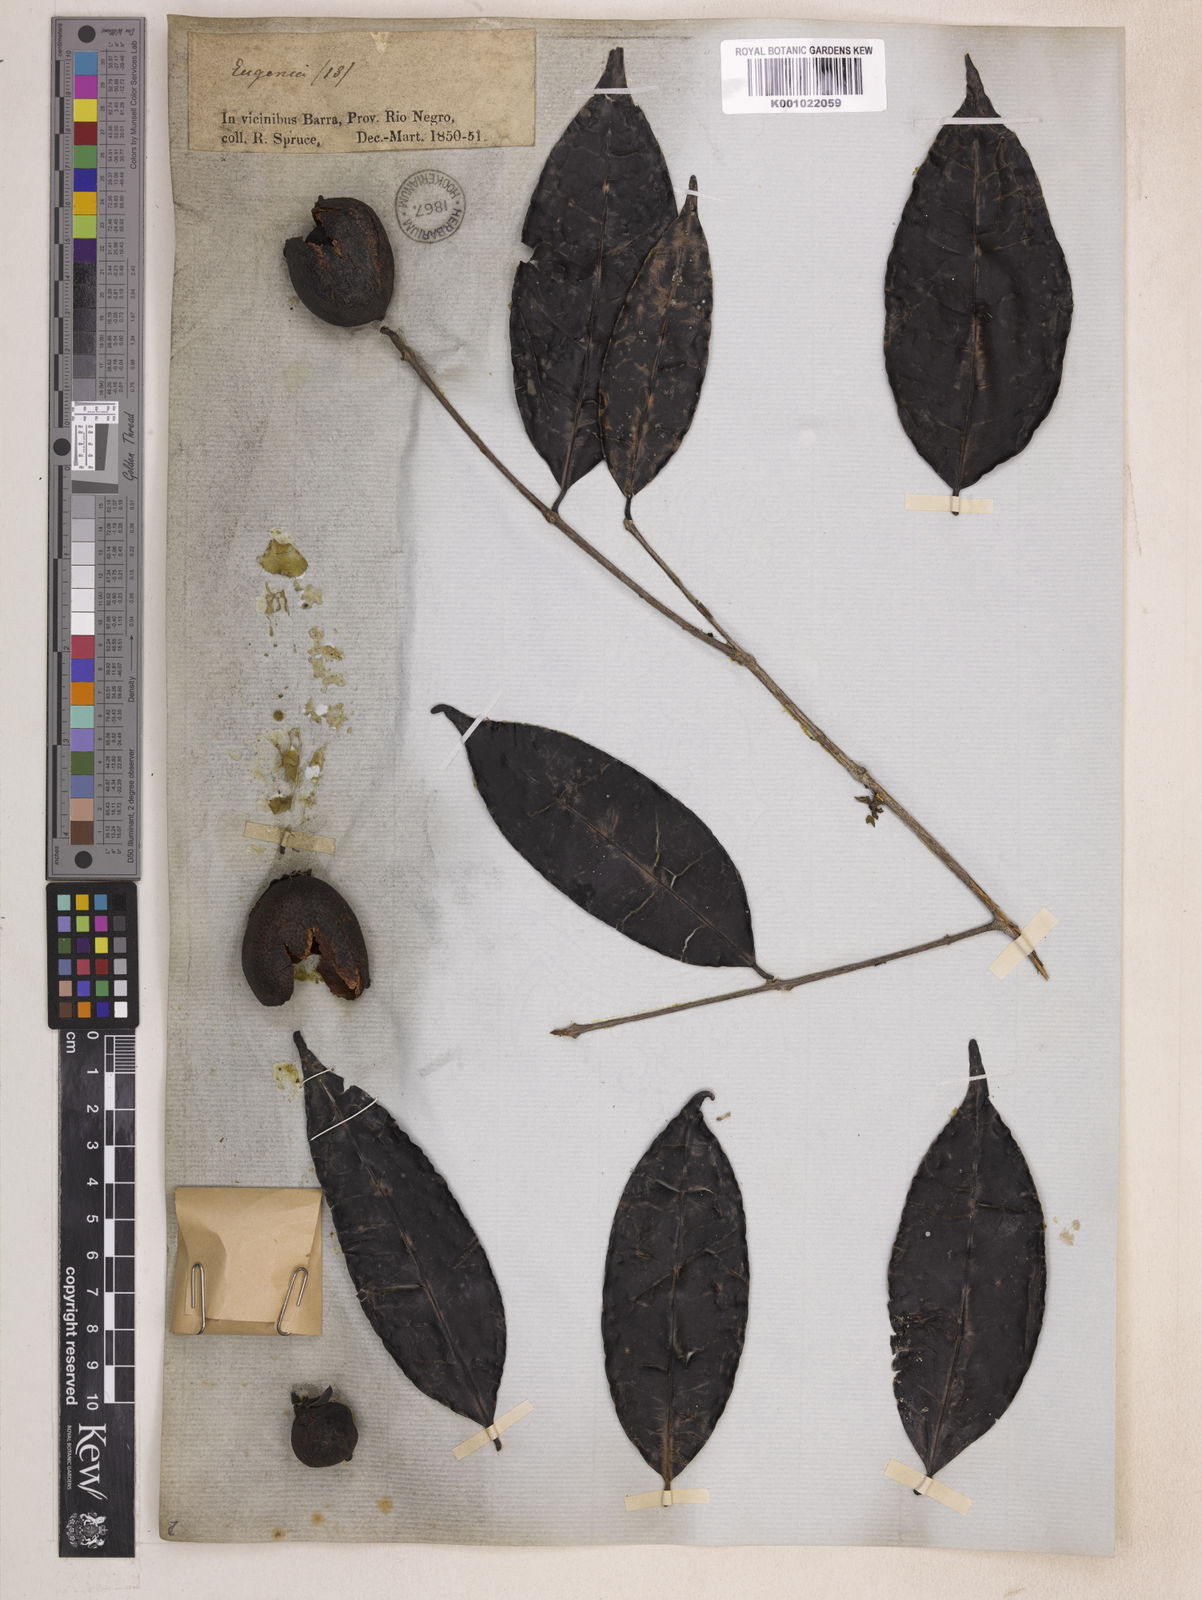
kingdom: Plantae
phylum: Tracheophyta
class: Magnoliopsida
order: Myrtales
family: Myrtaceae
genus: Eugenia
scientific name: Eugenia moschata
